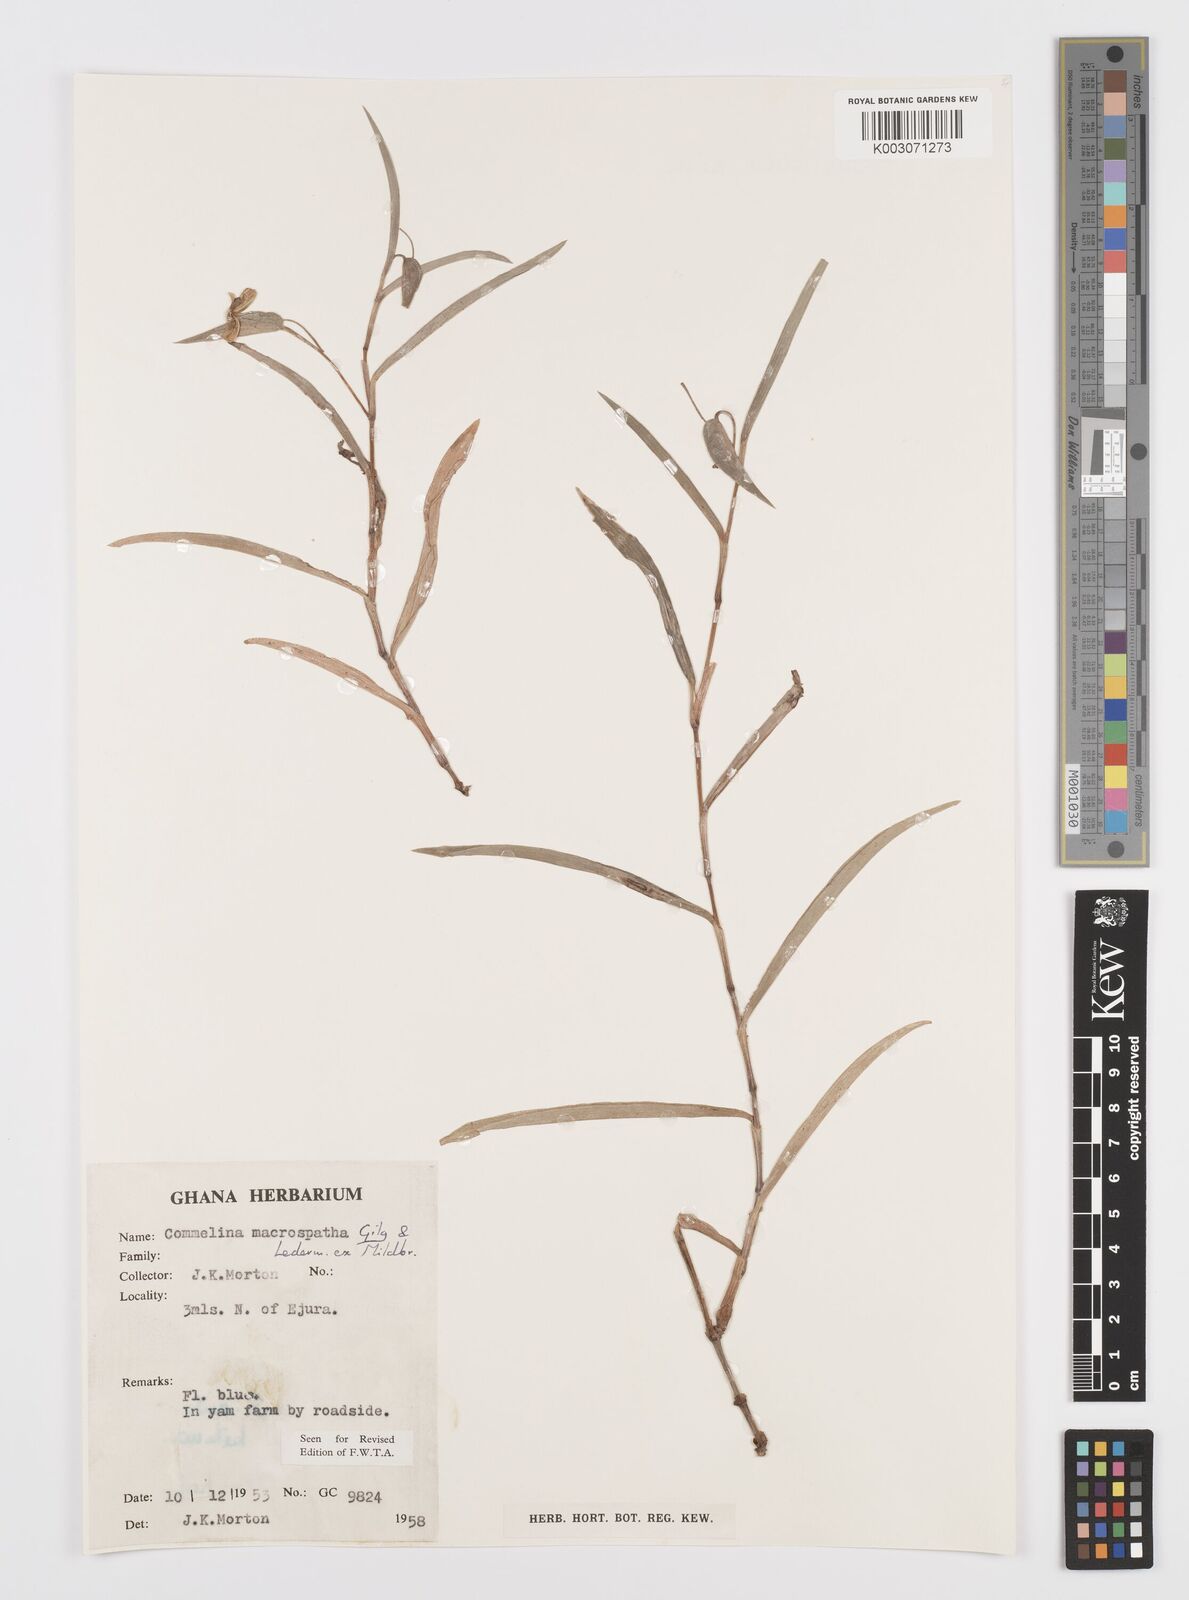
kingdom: Plantae
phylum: Tracheophyta
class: Liliopsida
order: Commelinales
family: Commelinaceae
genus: Commelina
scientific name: Commelina macrospatha
